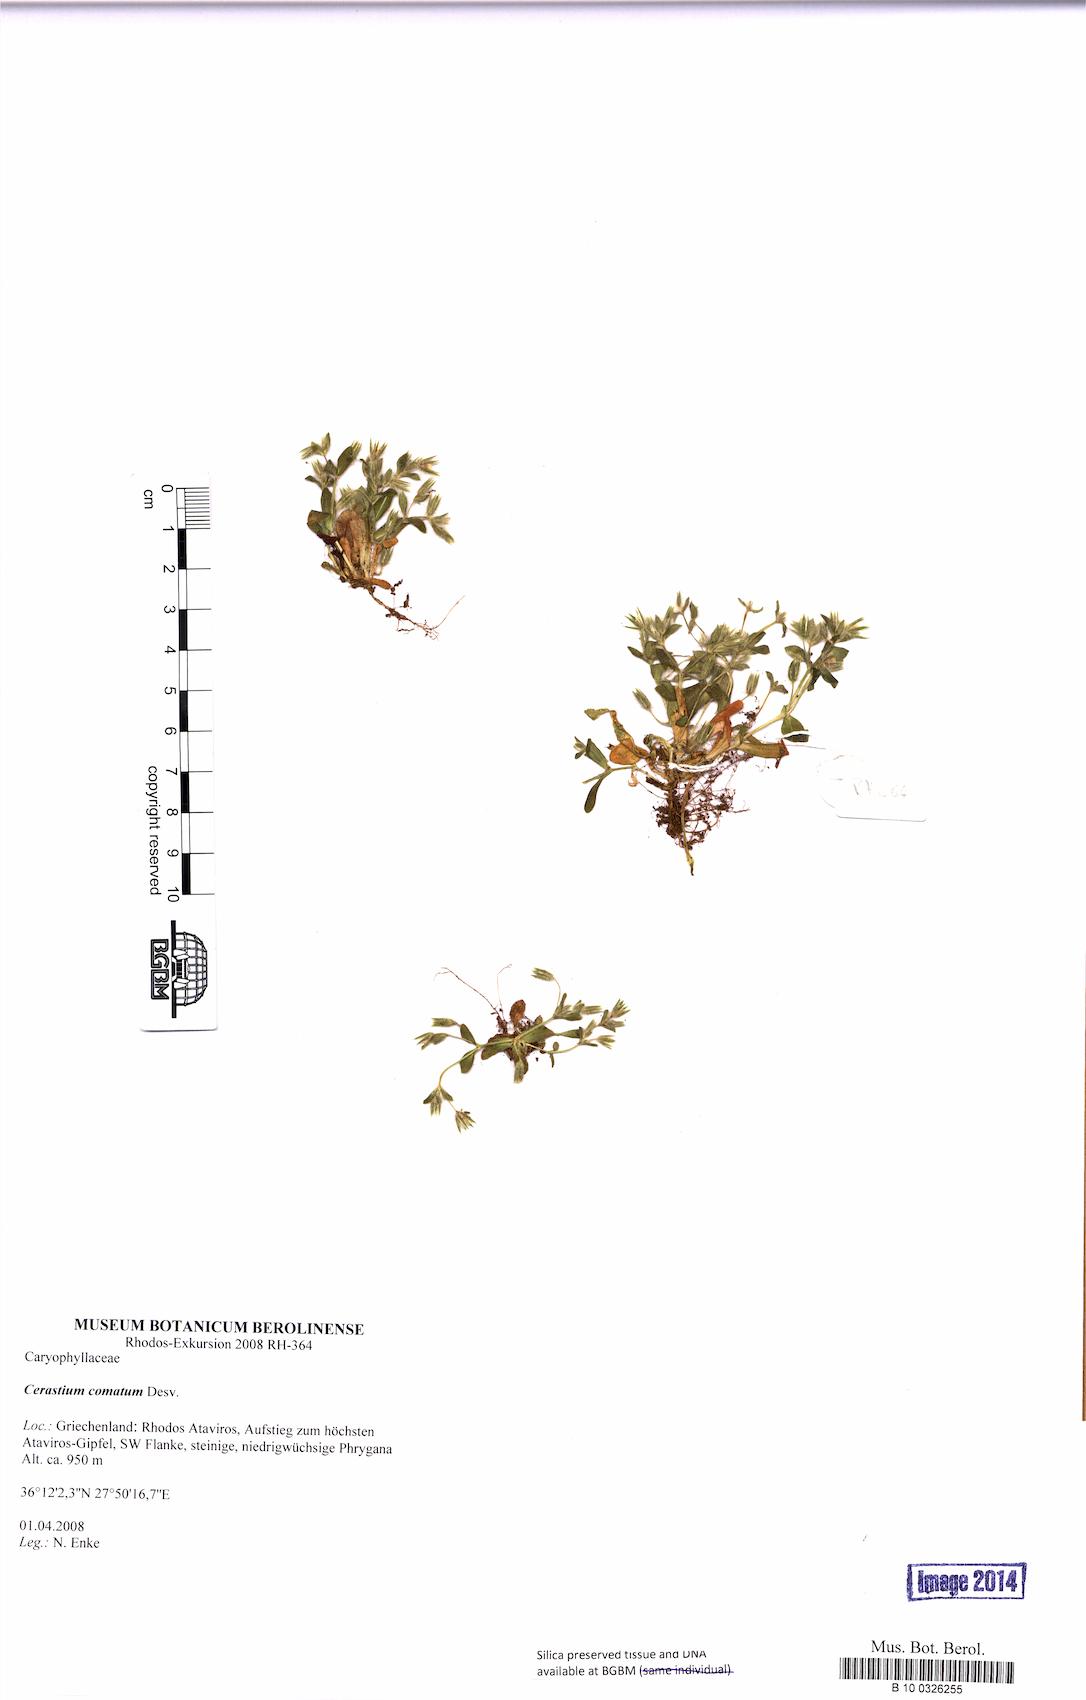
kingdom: Plantae
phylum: Tracheophyta
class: Magnoliopsida
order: Caryophyllales
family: Caryophyllaceae
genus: Cerastium
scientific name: Cerastium comatum
